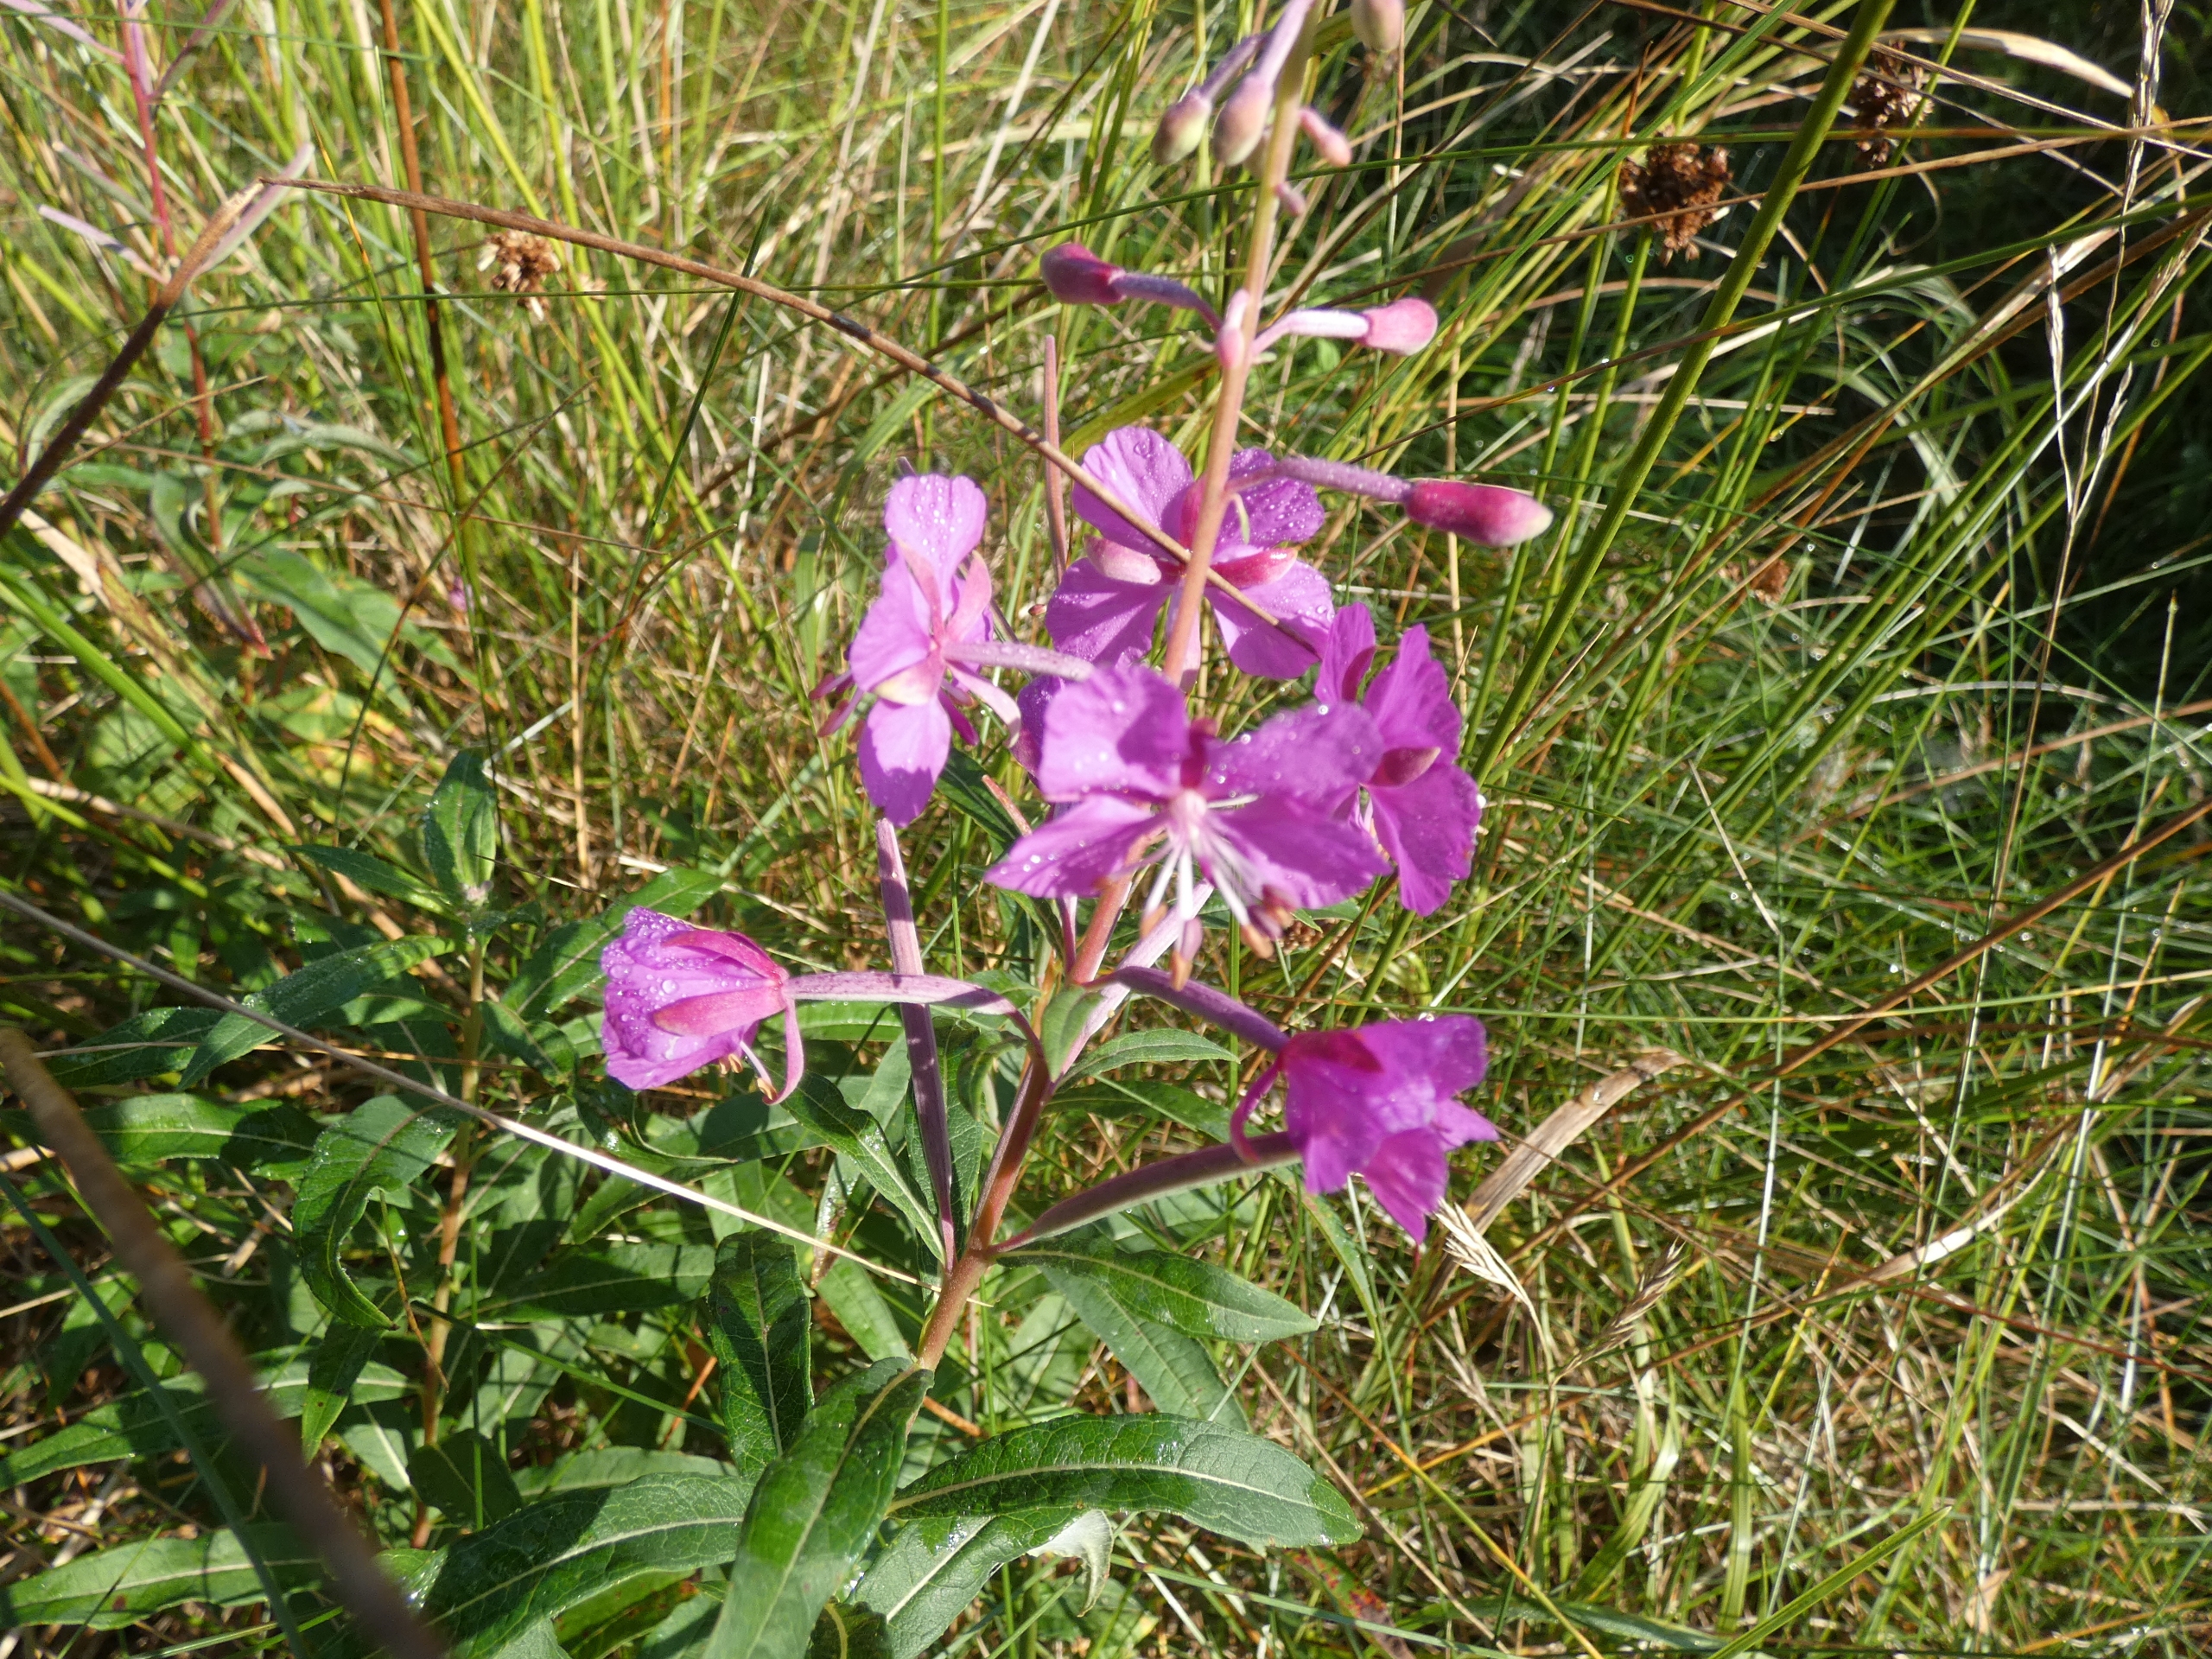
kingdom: Plantae
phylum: Tracheophyta
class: Magnoliopsida
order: Myrtales
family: Onagraceae
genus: Chamaenerion
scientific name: Chamaenerion angustifolium
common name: Gederams
